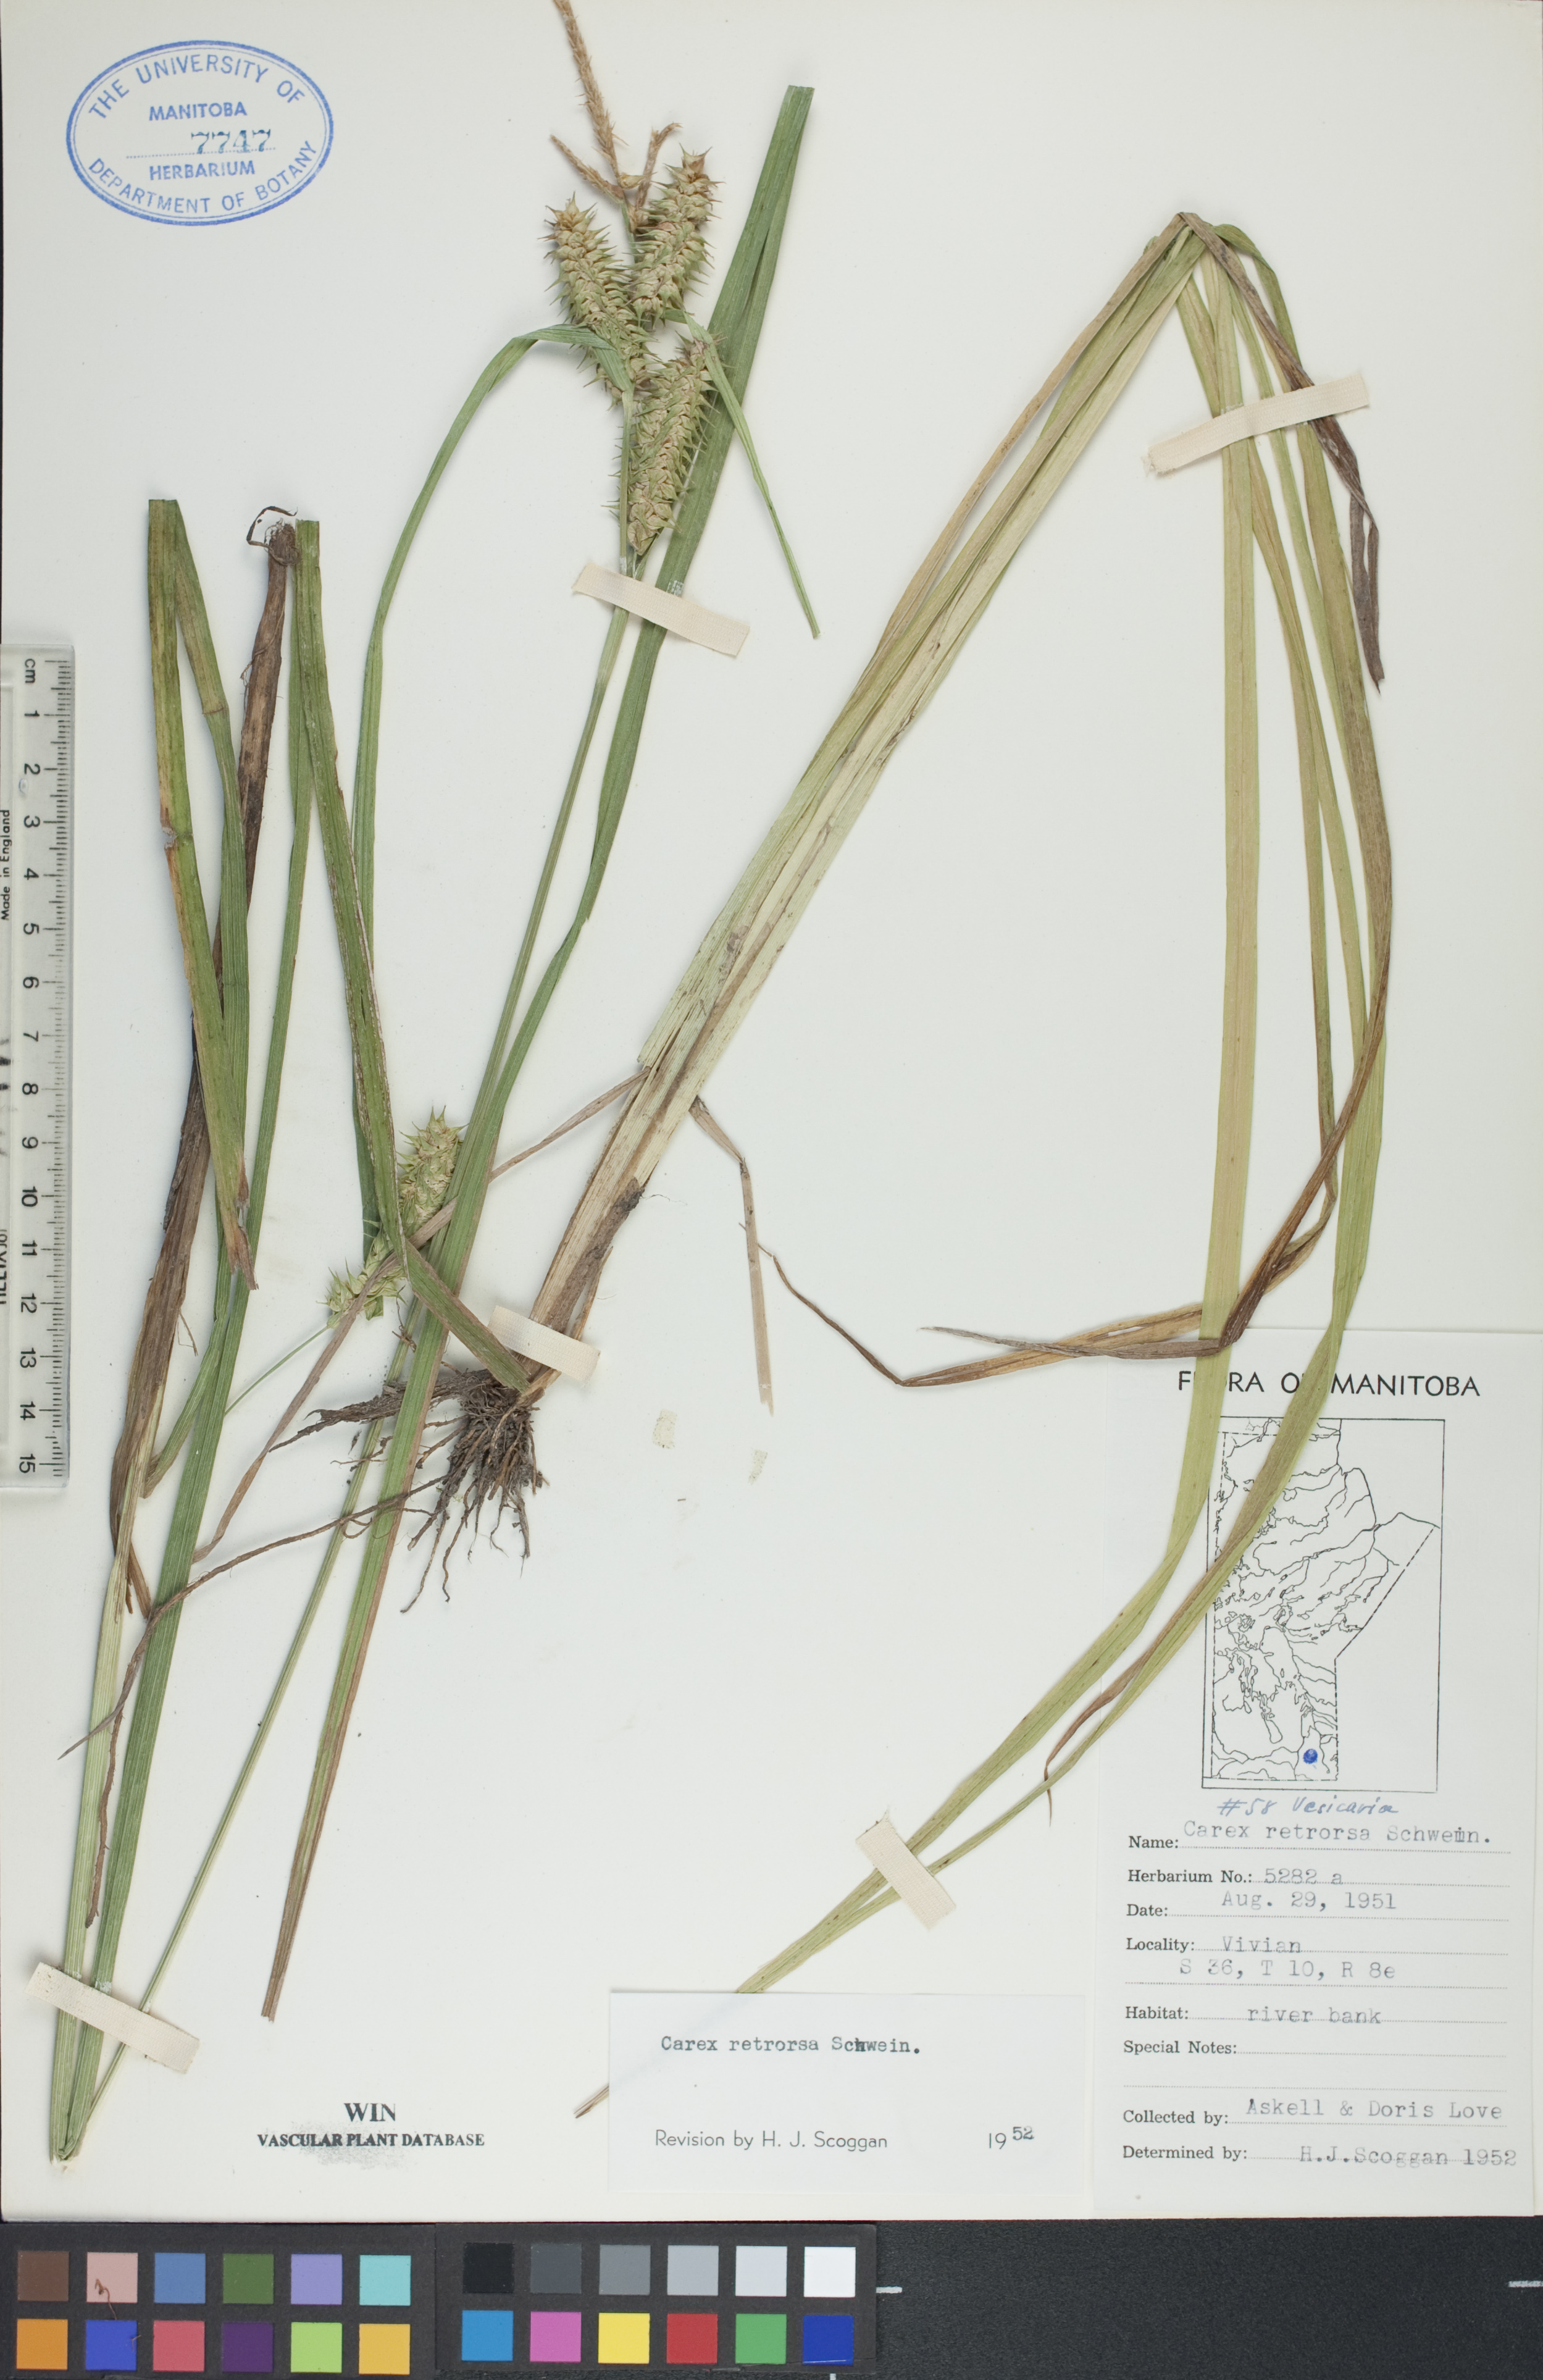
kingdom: Plantae
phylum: Tracheophyta
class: Liliopsida
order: Poales
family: Cyperaceae
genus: Carex
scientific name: Carex retrorsa
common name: Knot-sheath sedge
